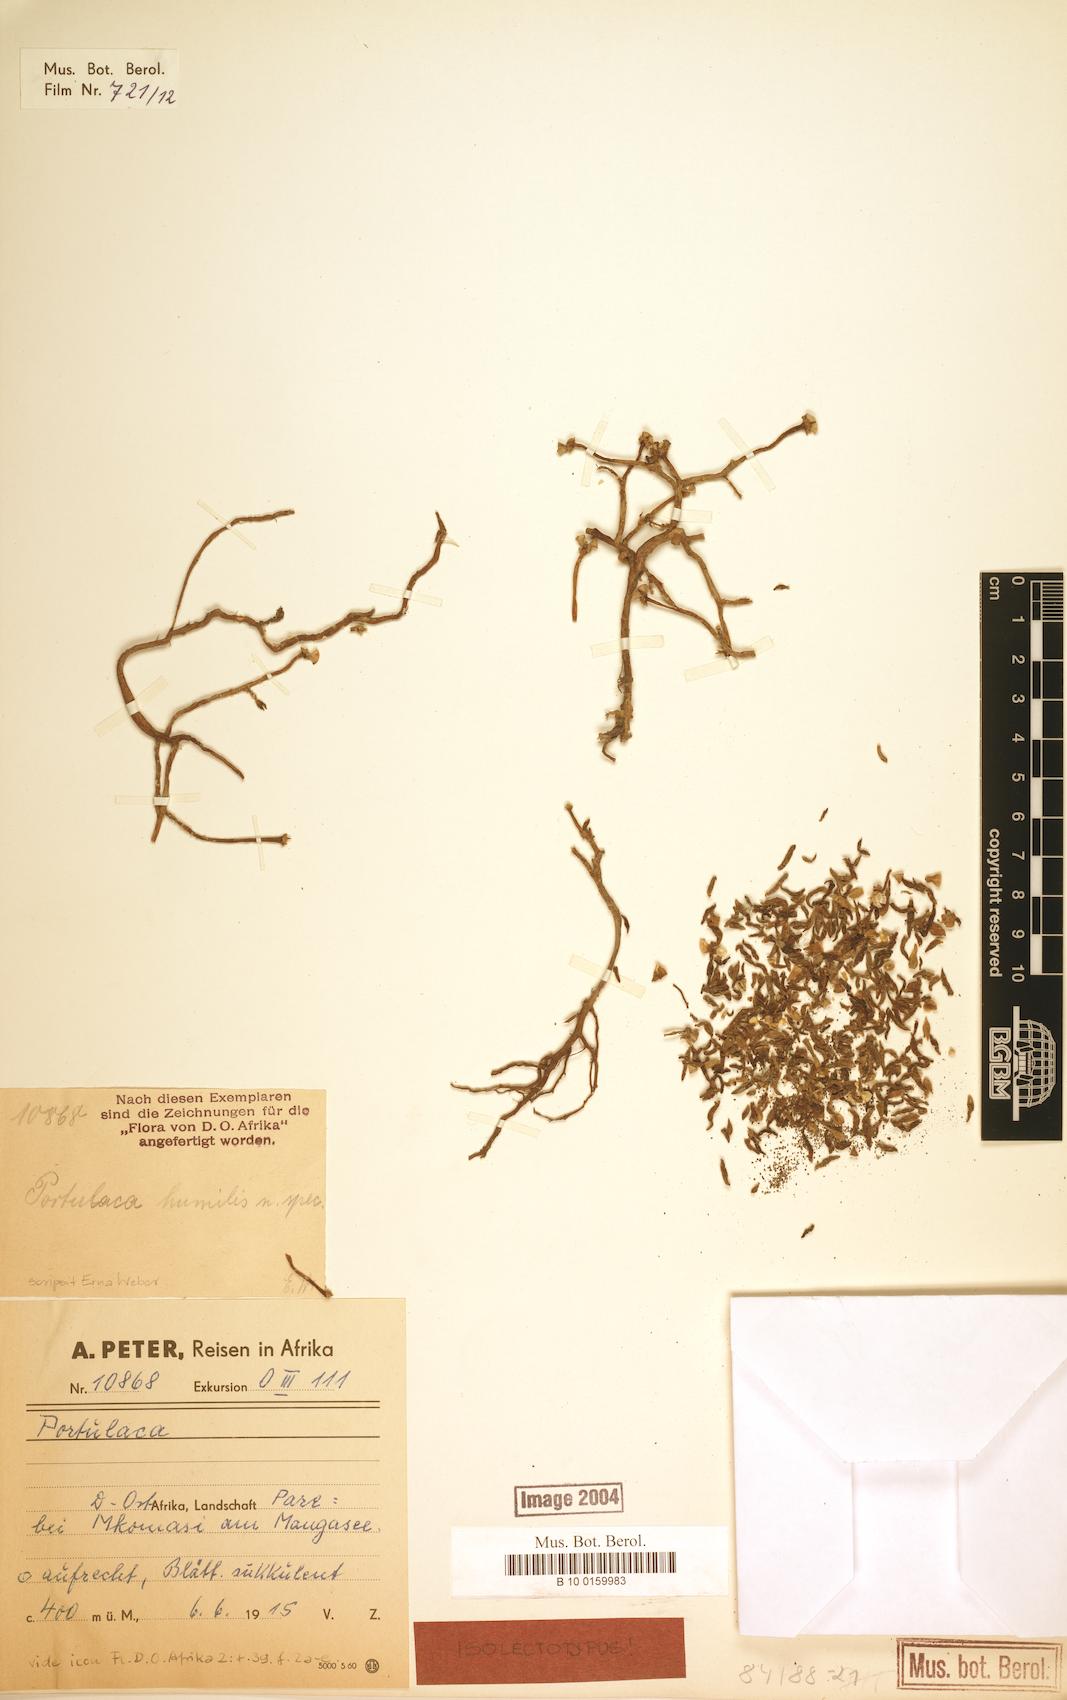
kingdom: Plantae
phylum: Tracheophyta
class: Magnoliopsida
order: Caryophyllales
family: Portulacaceae
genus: Portulaca
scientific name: Portulaca humilis
